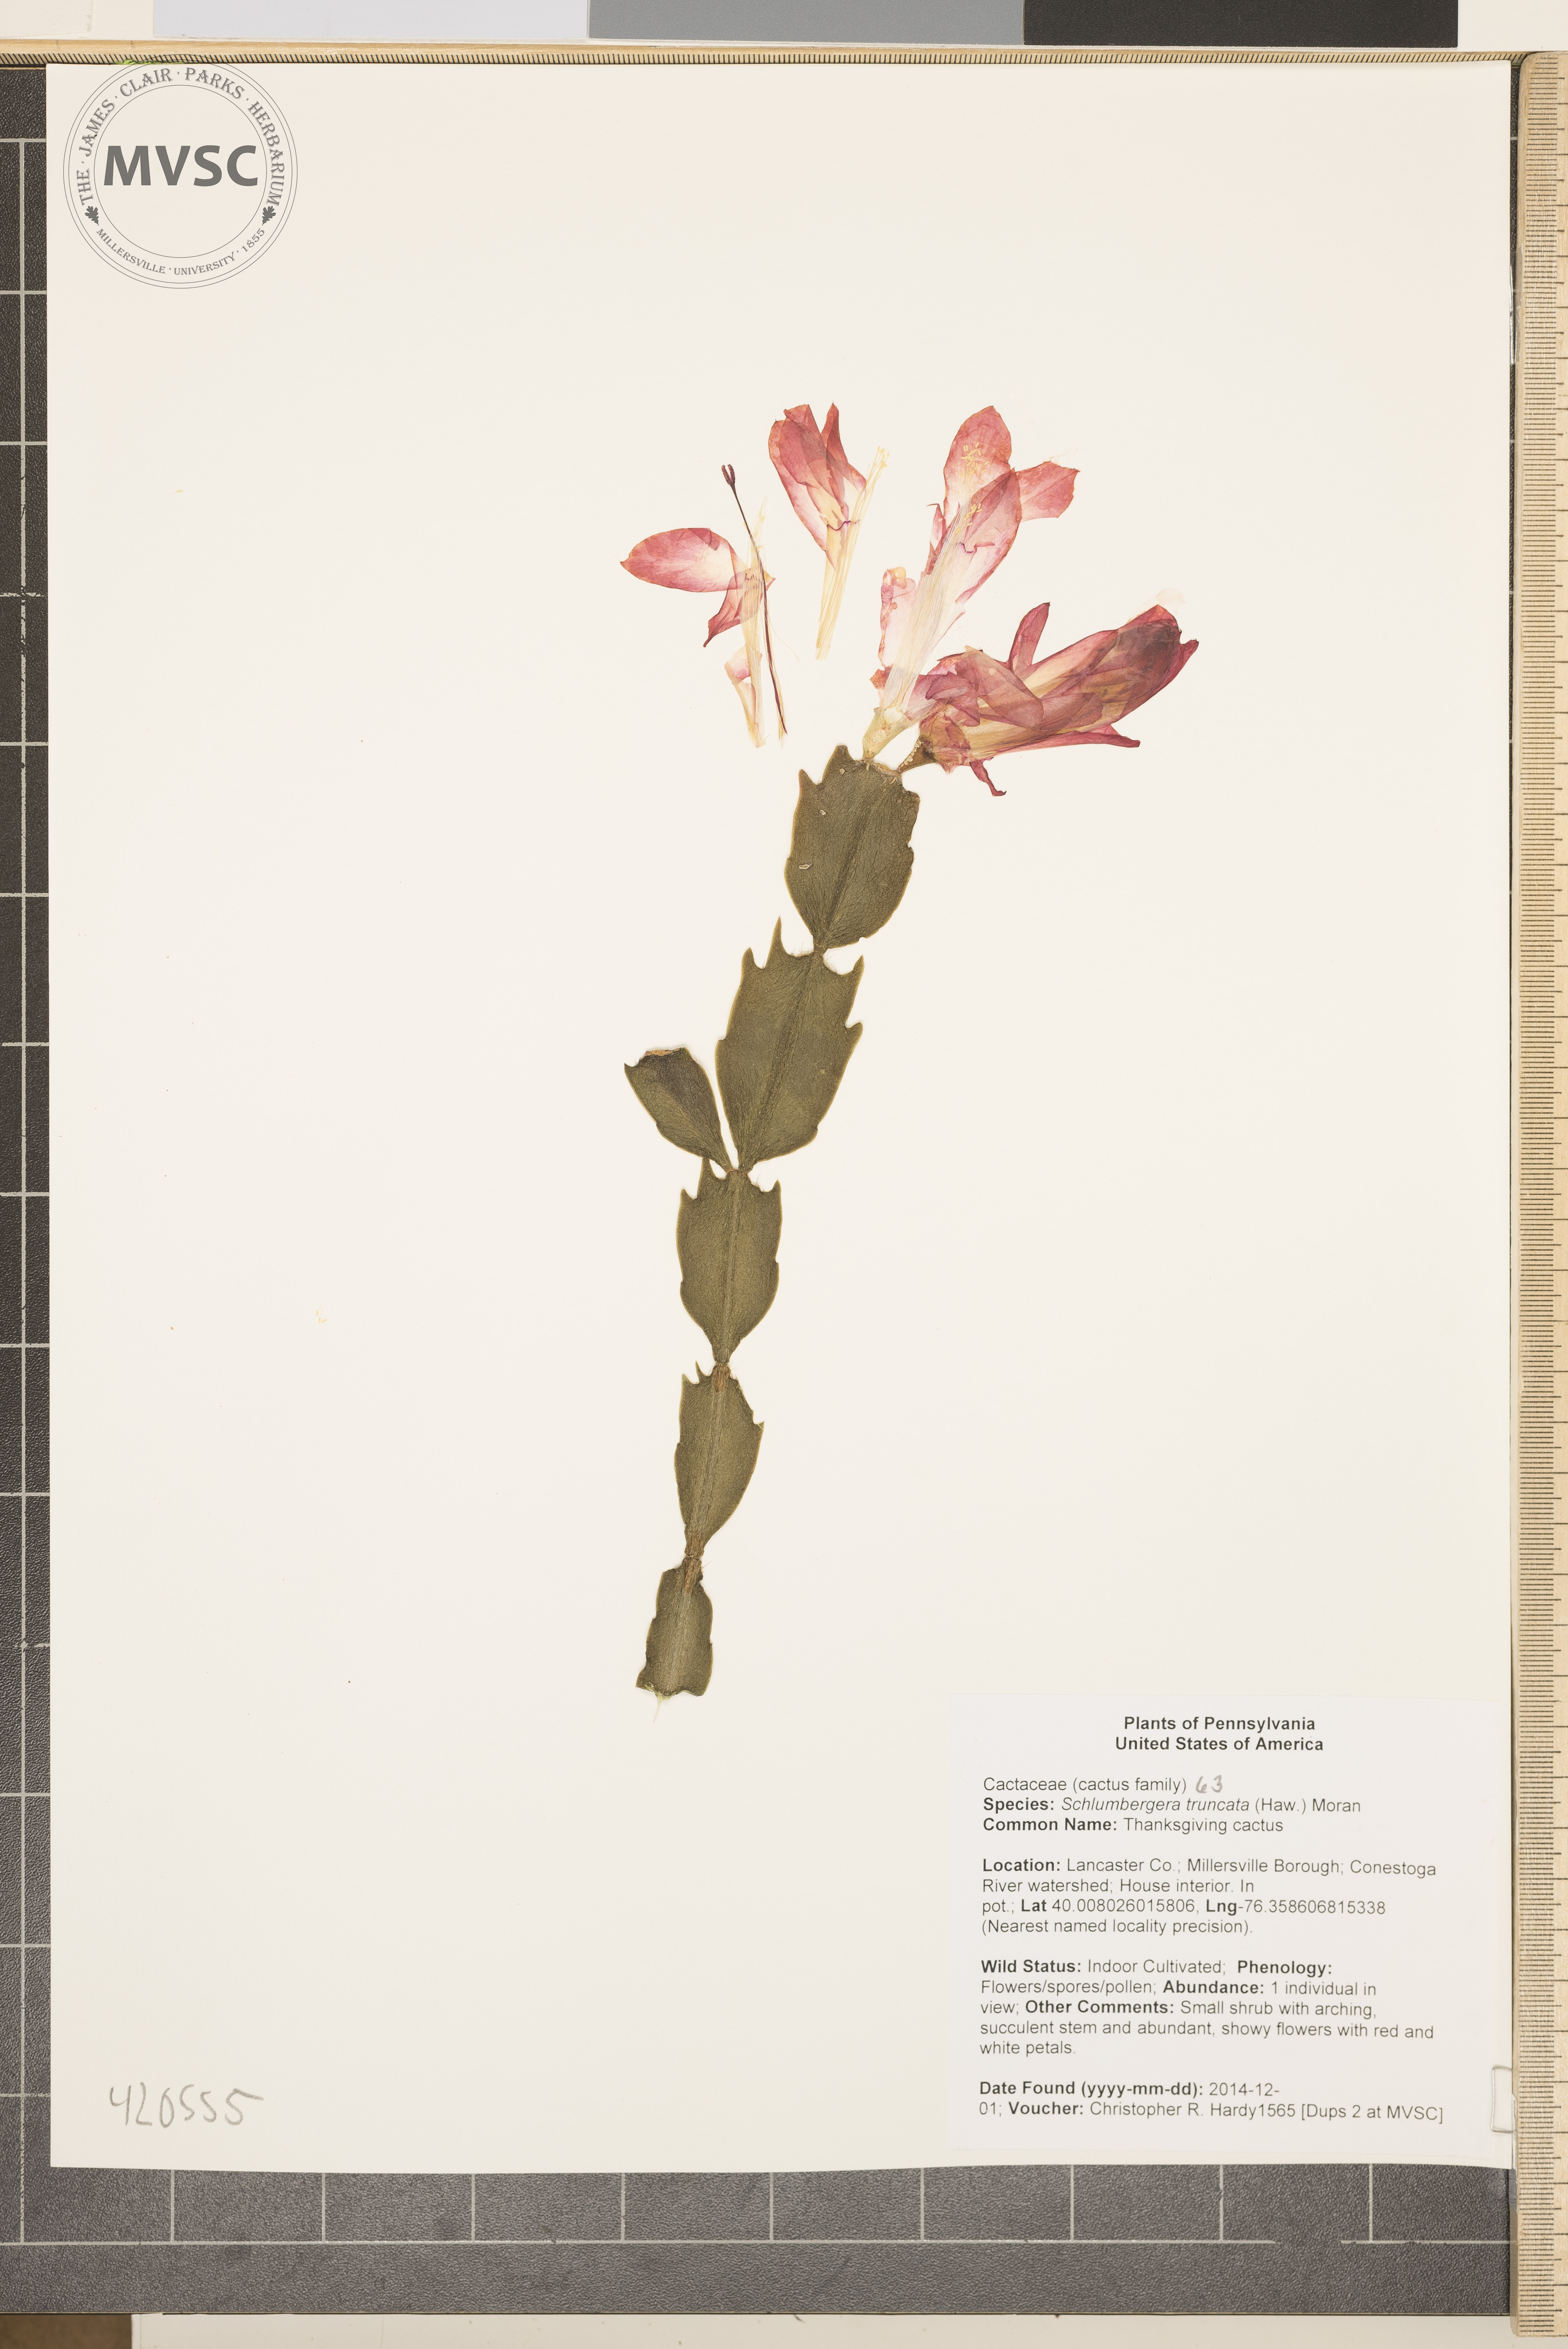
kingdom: Plantae
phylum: Tracheophyta
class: Magnoliopsida
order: Caryophyllales
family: Cactaceae
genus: Schlumbergera
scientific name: Schlumbergera truncata
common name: Thanksgiving Cactus
